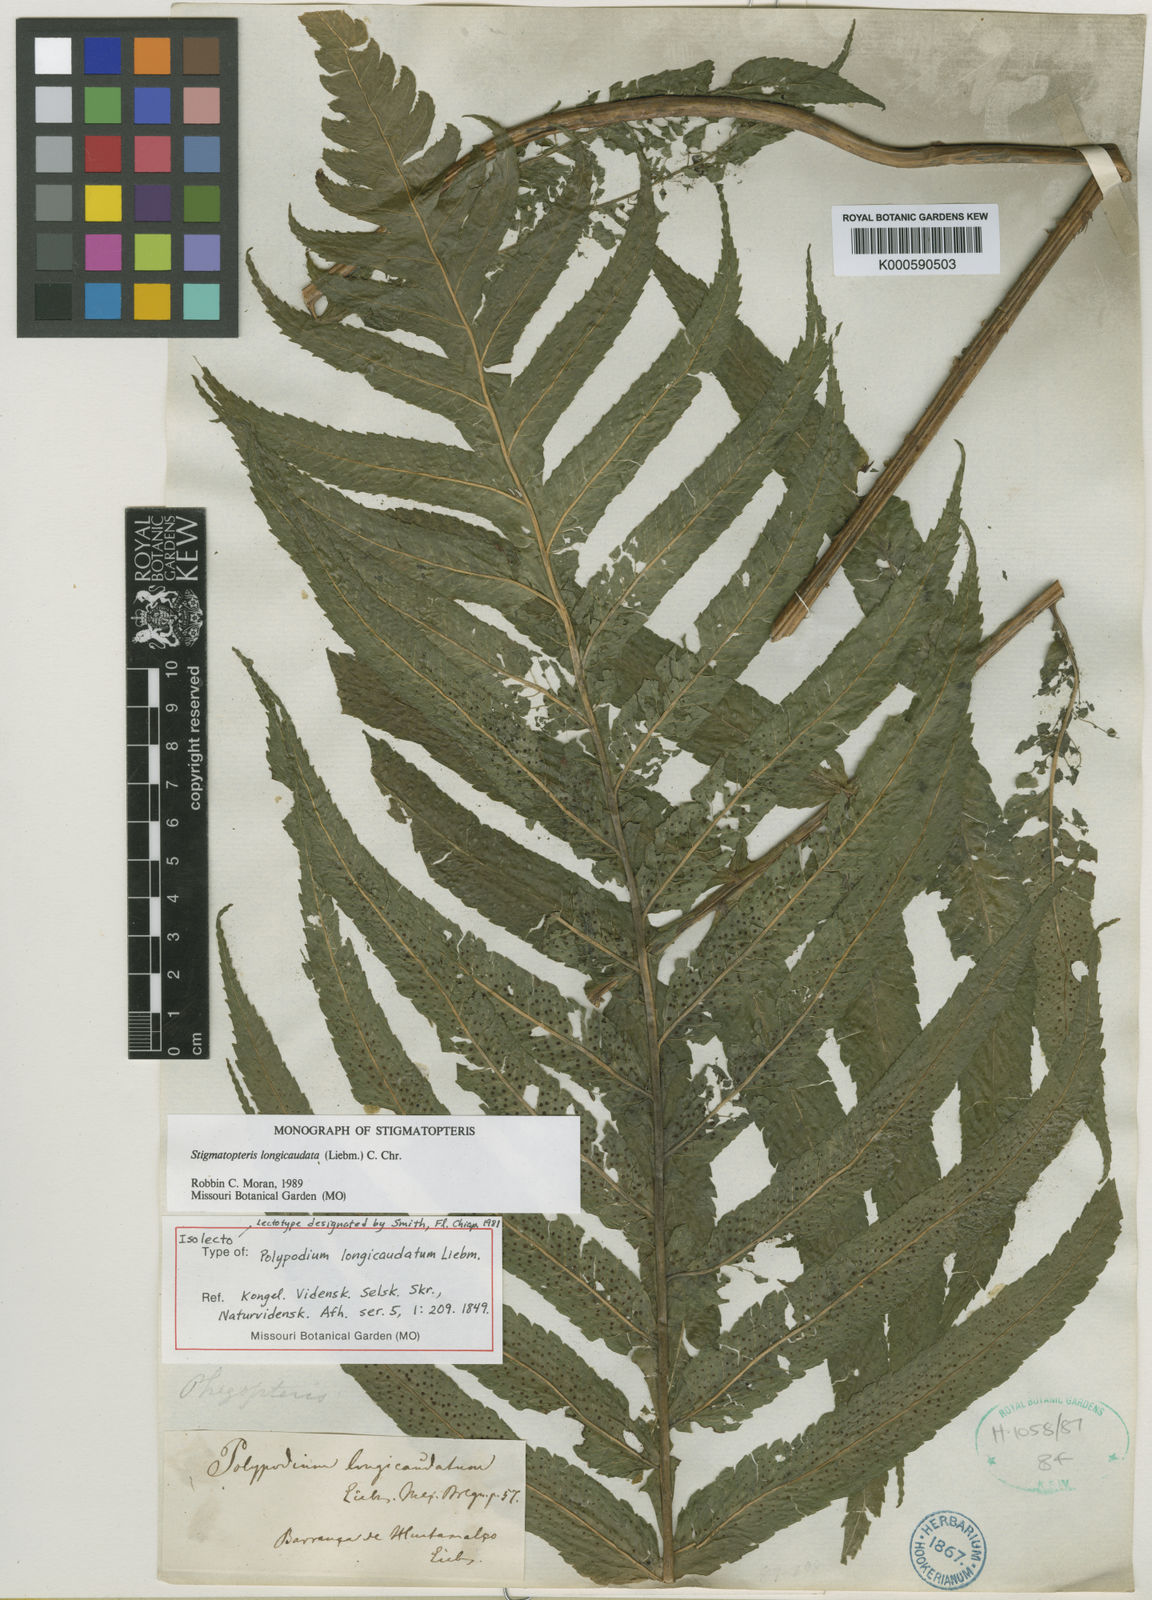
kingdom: Plantae
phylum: Tracheophyta
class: Polypodiopsida
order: Polypodiales
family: Dryopteridaceae
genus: Stigmatopteris
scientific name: Stigmatopteris heterophlebia
